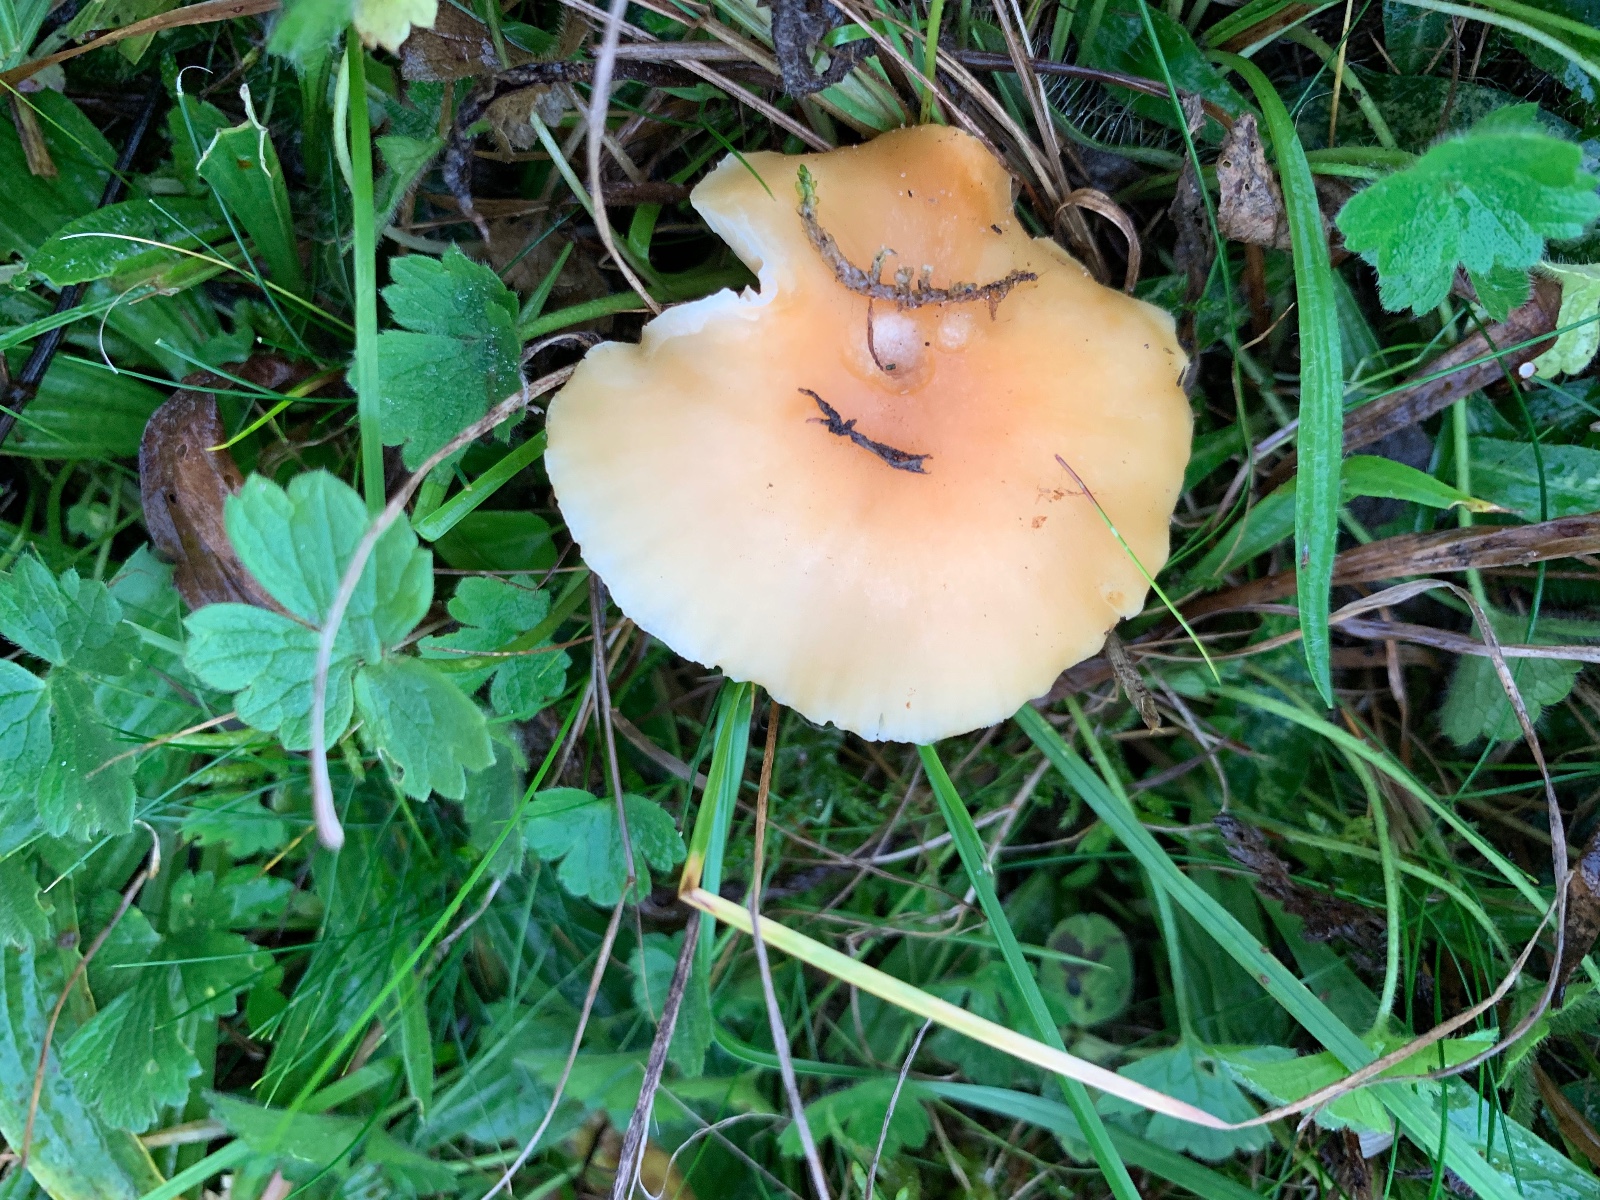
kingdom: Fungi
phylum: Basidiomycota
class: Agaricomycetes
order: Agaricales
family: Hygrophoraceae
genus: Cuphophyllus
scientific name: Cuphophyllus pratensis
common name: eng-vokshat
